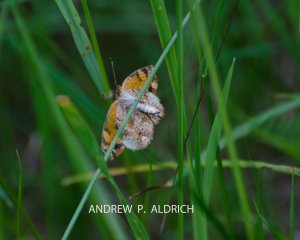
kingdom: Animalia
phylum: Arthropoda
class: Insecta
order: Lepidoptera
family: Nymphalidae
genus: Phyciodes
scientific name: Phyciodes tharos
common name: Pearl Crescent
